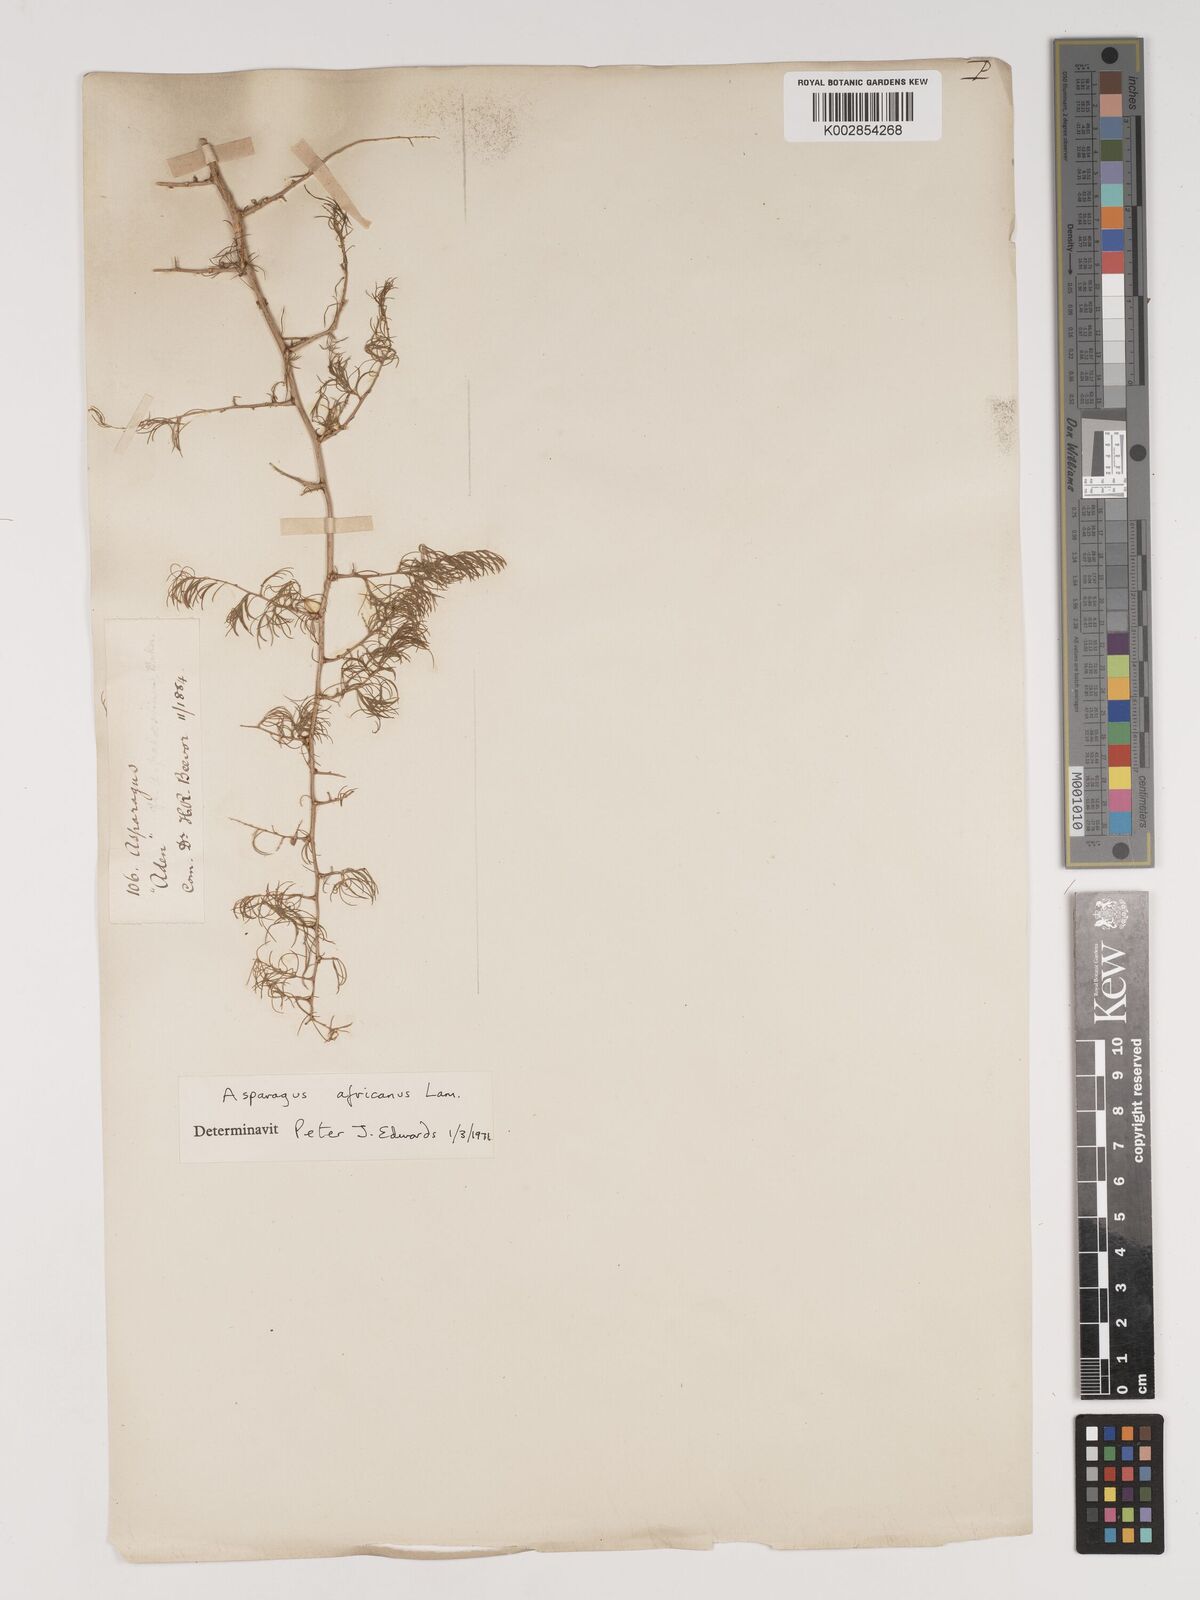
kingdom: Plantae
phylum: Tracheophyta
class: Liliopsida
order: Asparagales
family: Asparagaceae
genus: Asparagus
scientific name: Asparagus africanus
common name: Asparagus-fern
